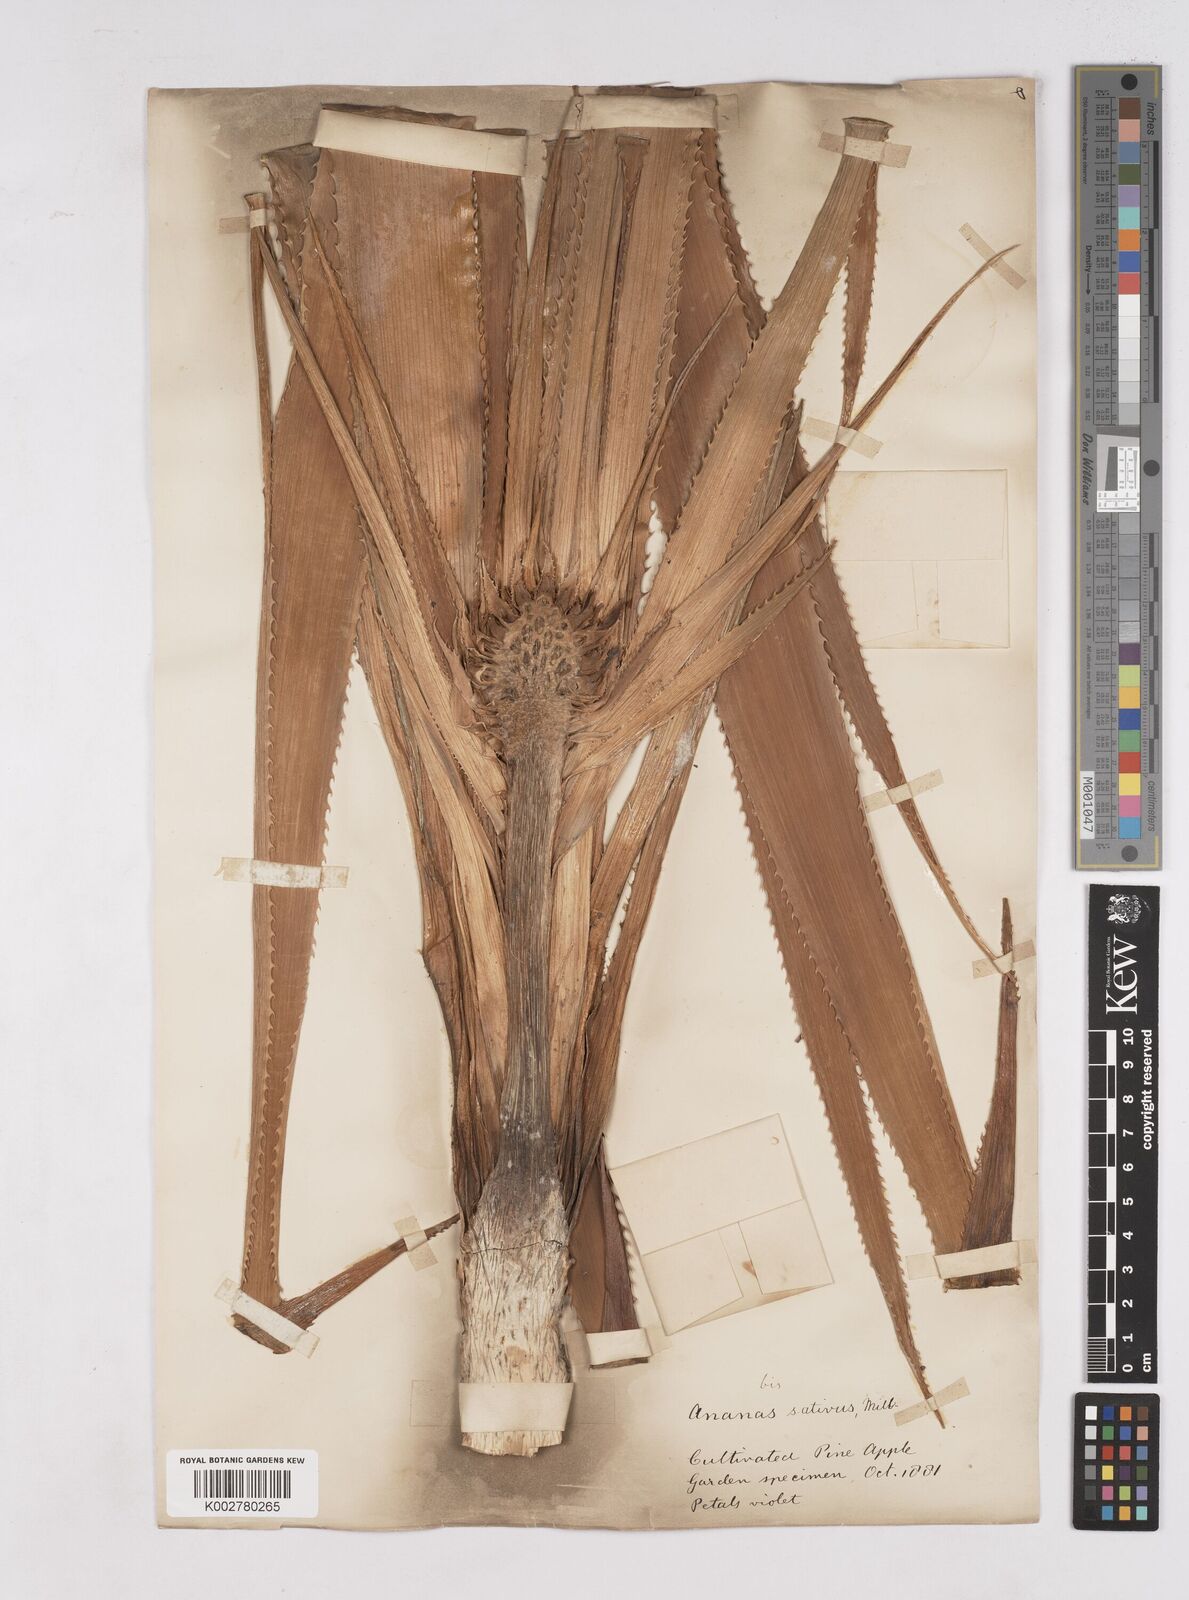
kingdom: Plantae
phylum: Tracheophyta
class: Liliopsida
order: Poales
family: Bromeliaceae
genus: Ananas
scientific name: Ananas comosus
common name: Pineapple
